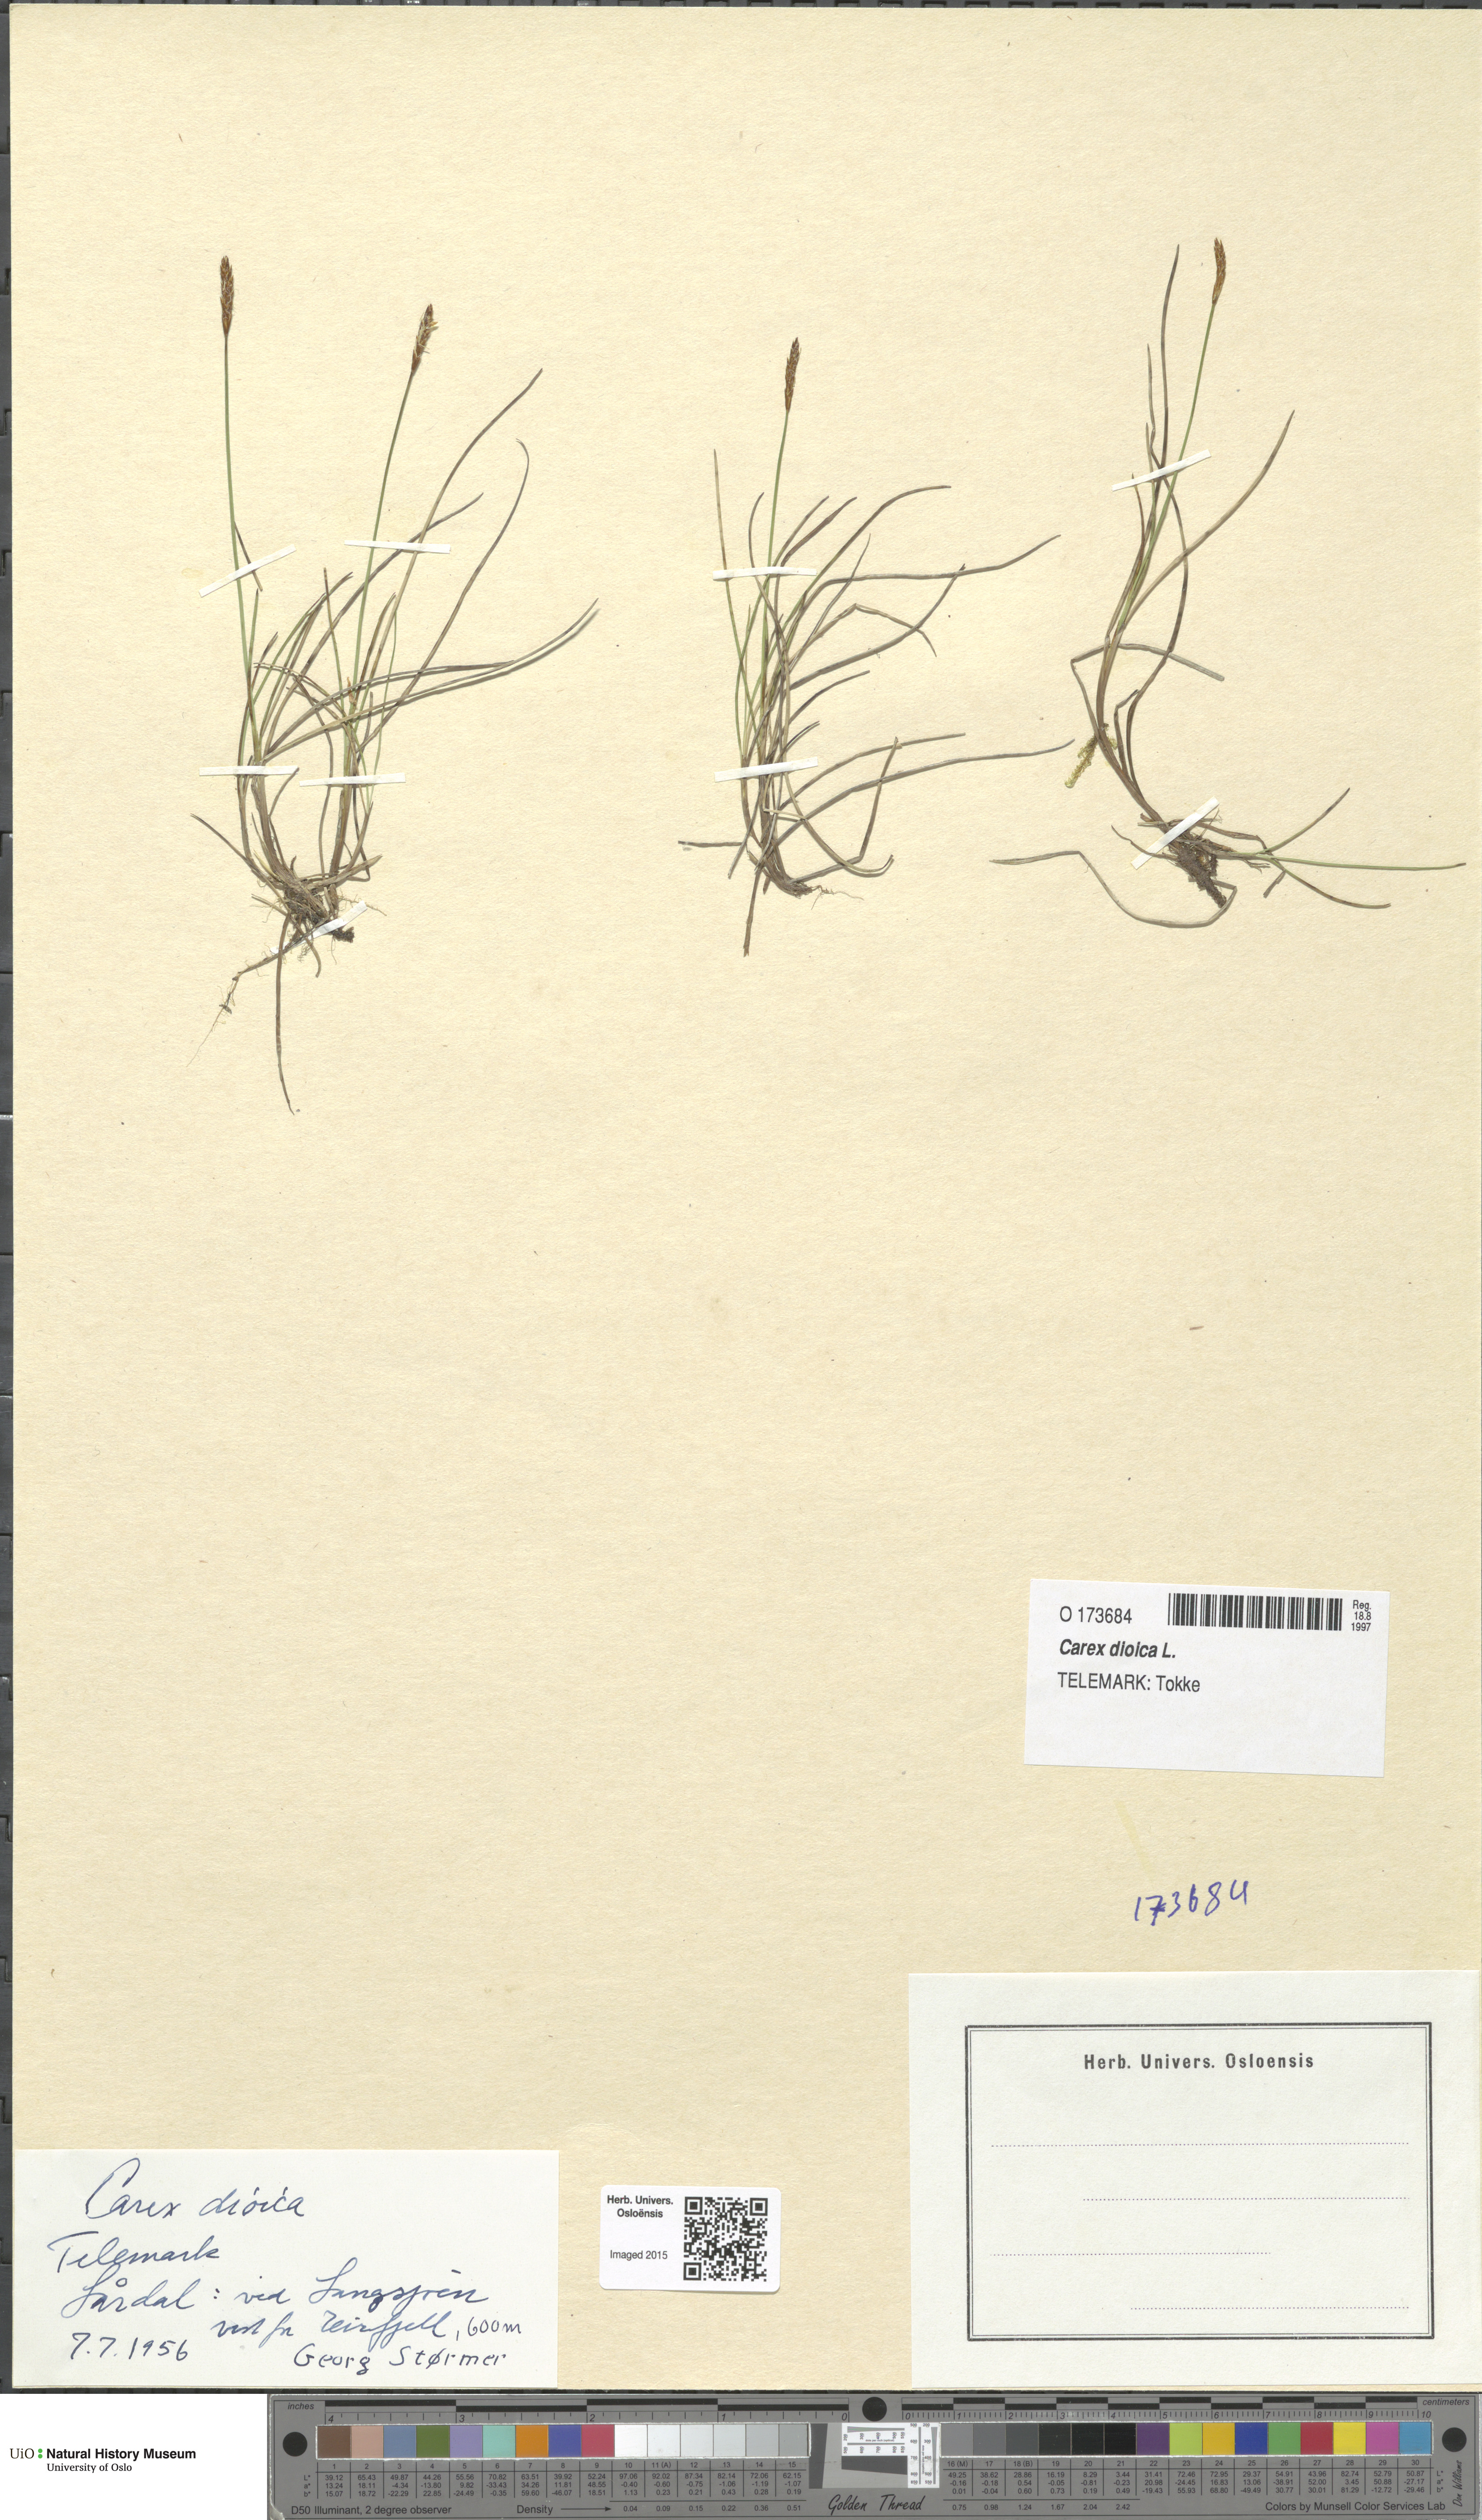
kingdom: Plantae
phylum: Tracheophyta
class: Liliopsida
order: Poales
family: Cyperaceae
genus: Carex
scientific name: Carex dioica
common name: Dioecious sedge
